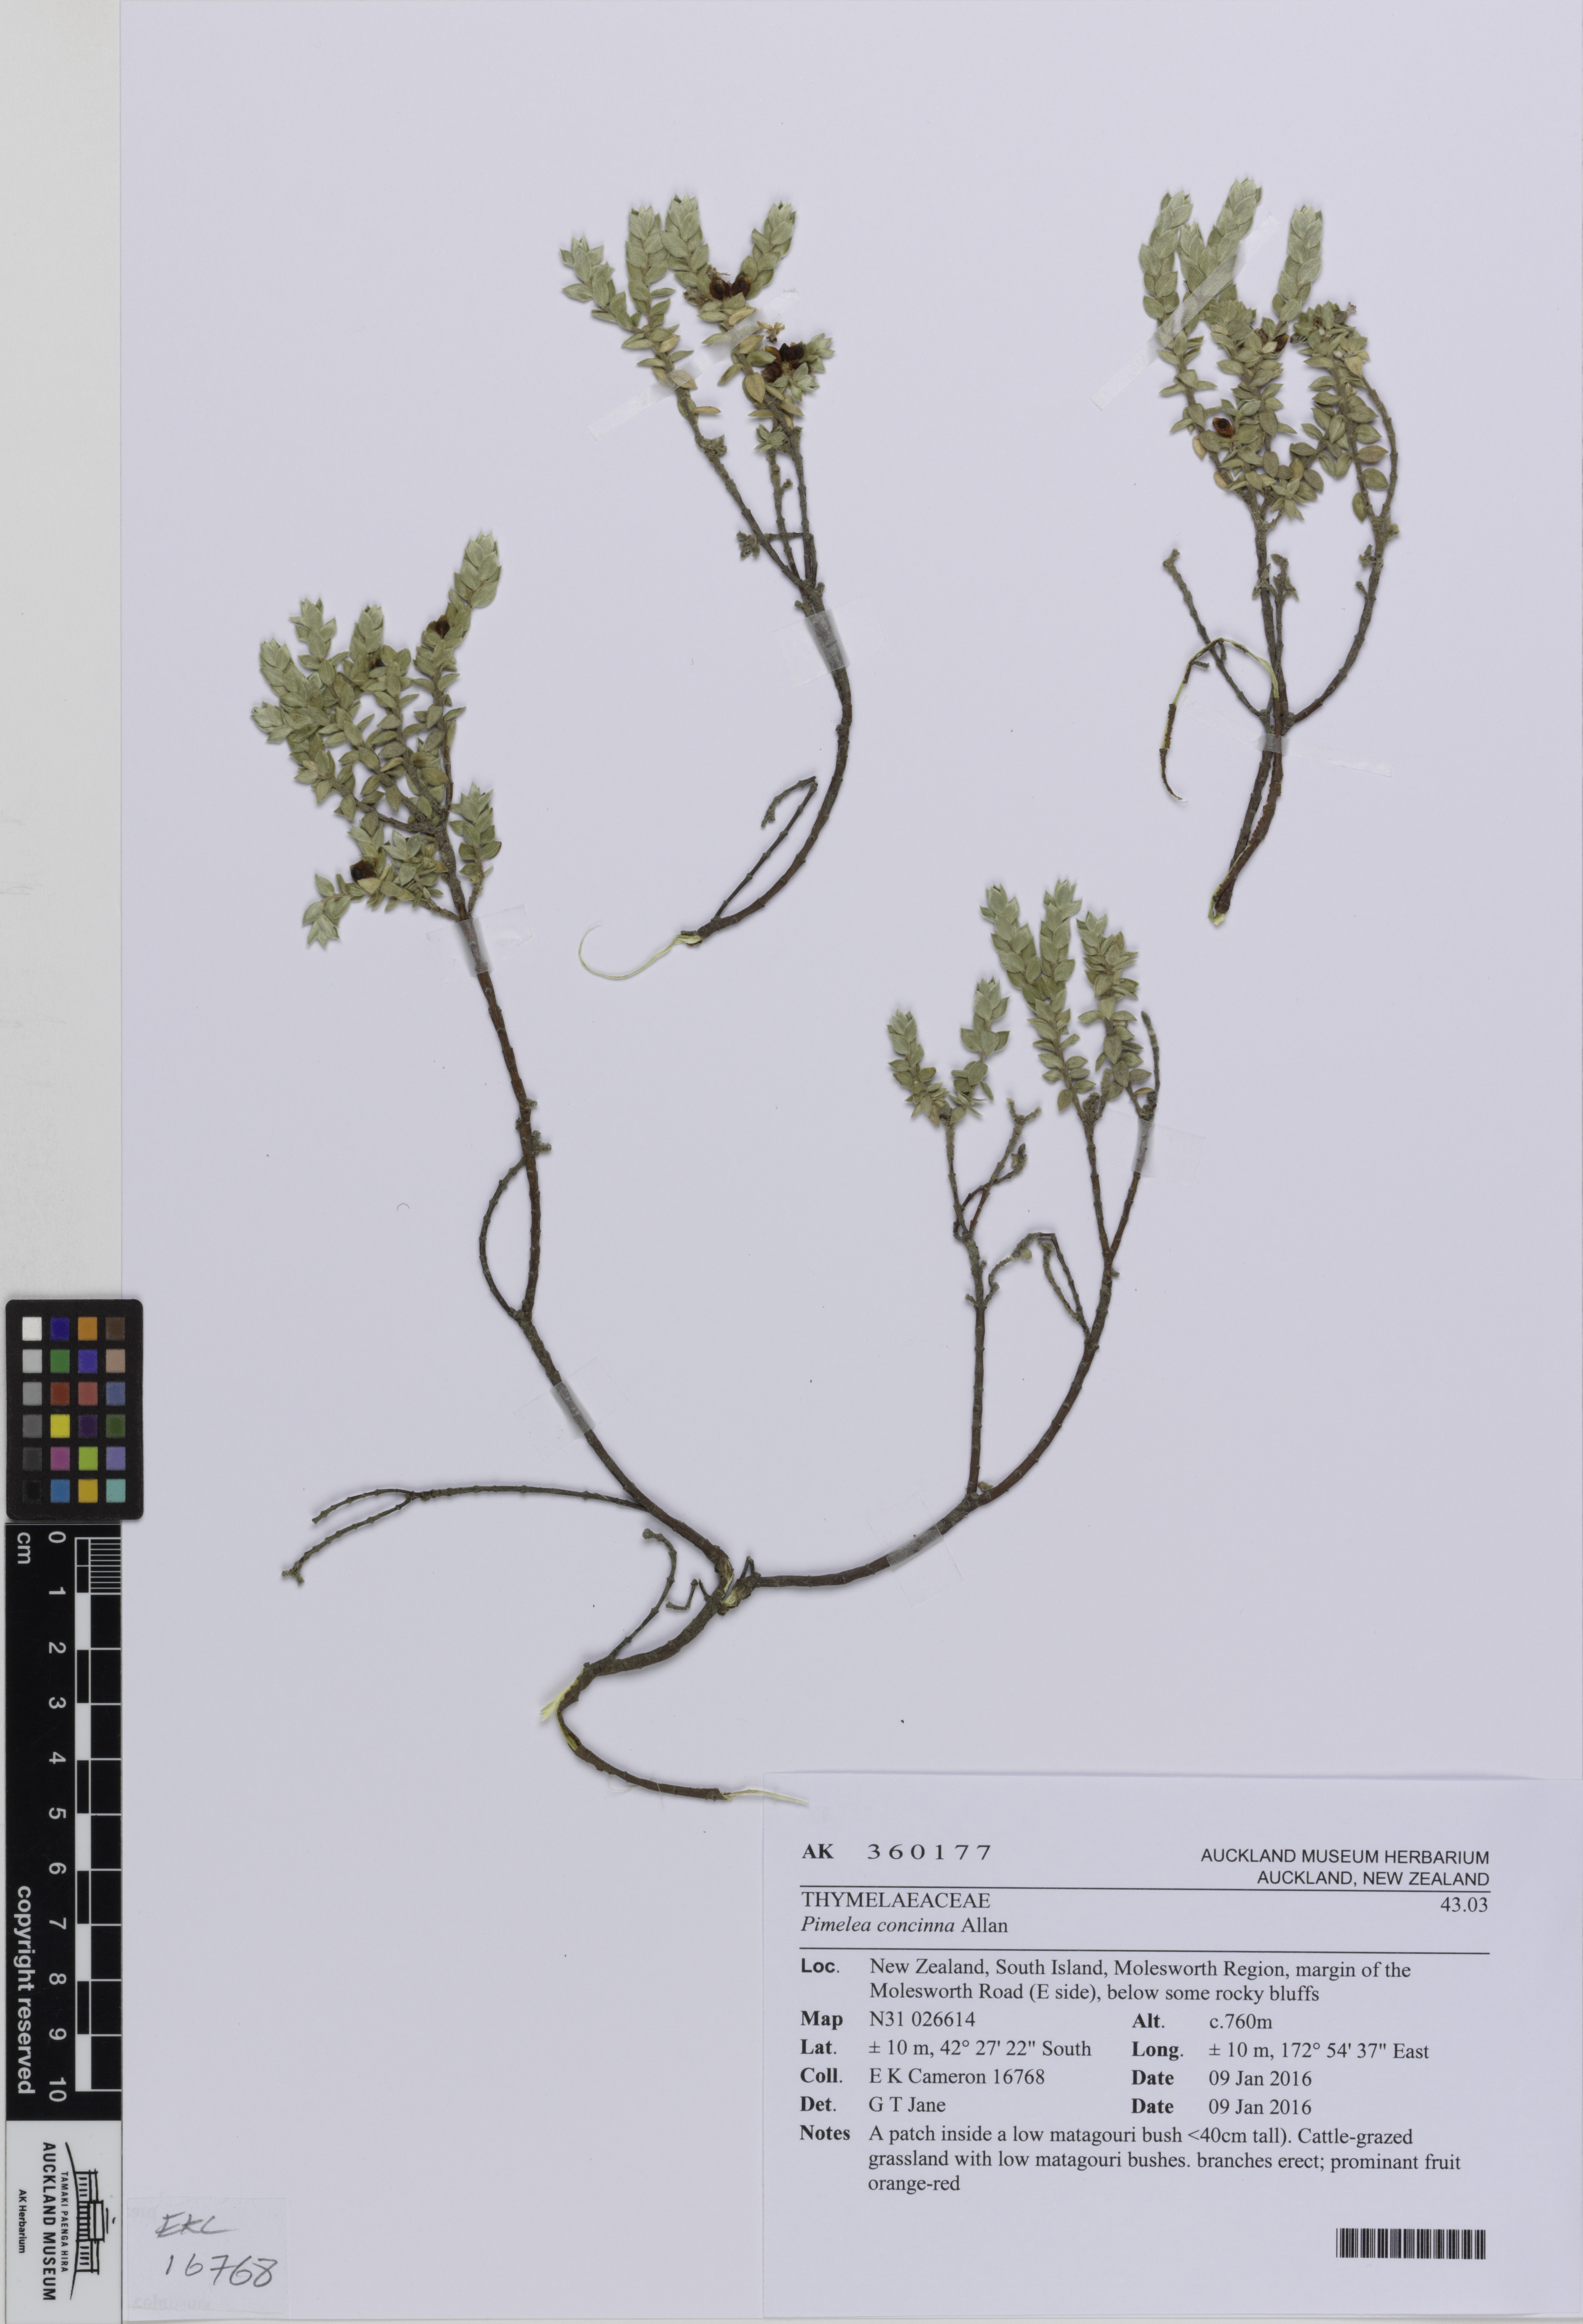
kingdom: Plantae
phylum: Tracheophyta
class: Magnoliopsida
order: Malvales
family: Thymelaeaceae
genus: Pimelea
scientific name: Pimelea concinna
